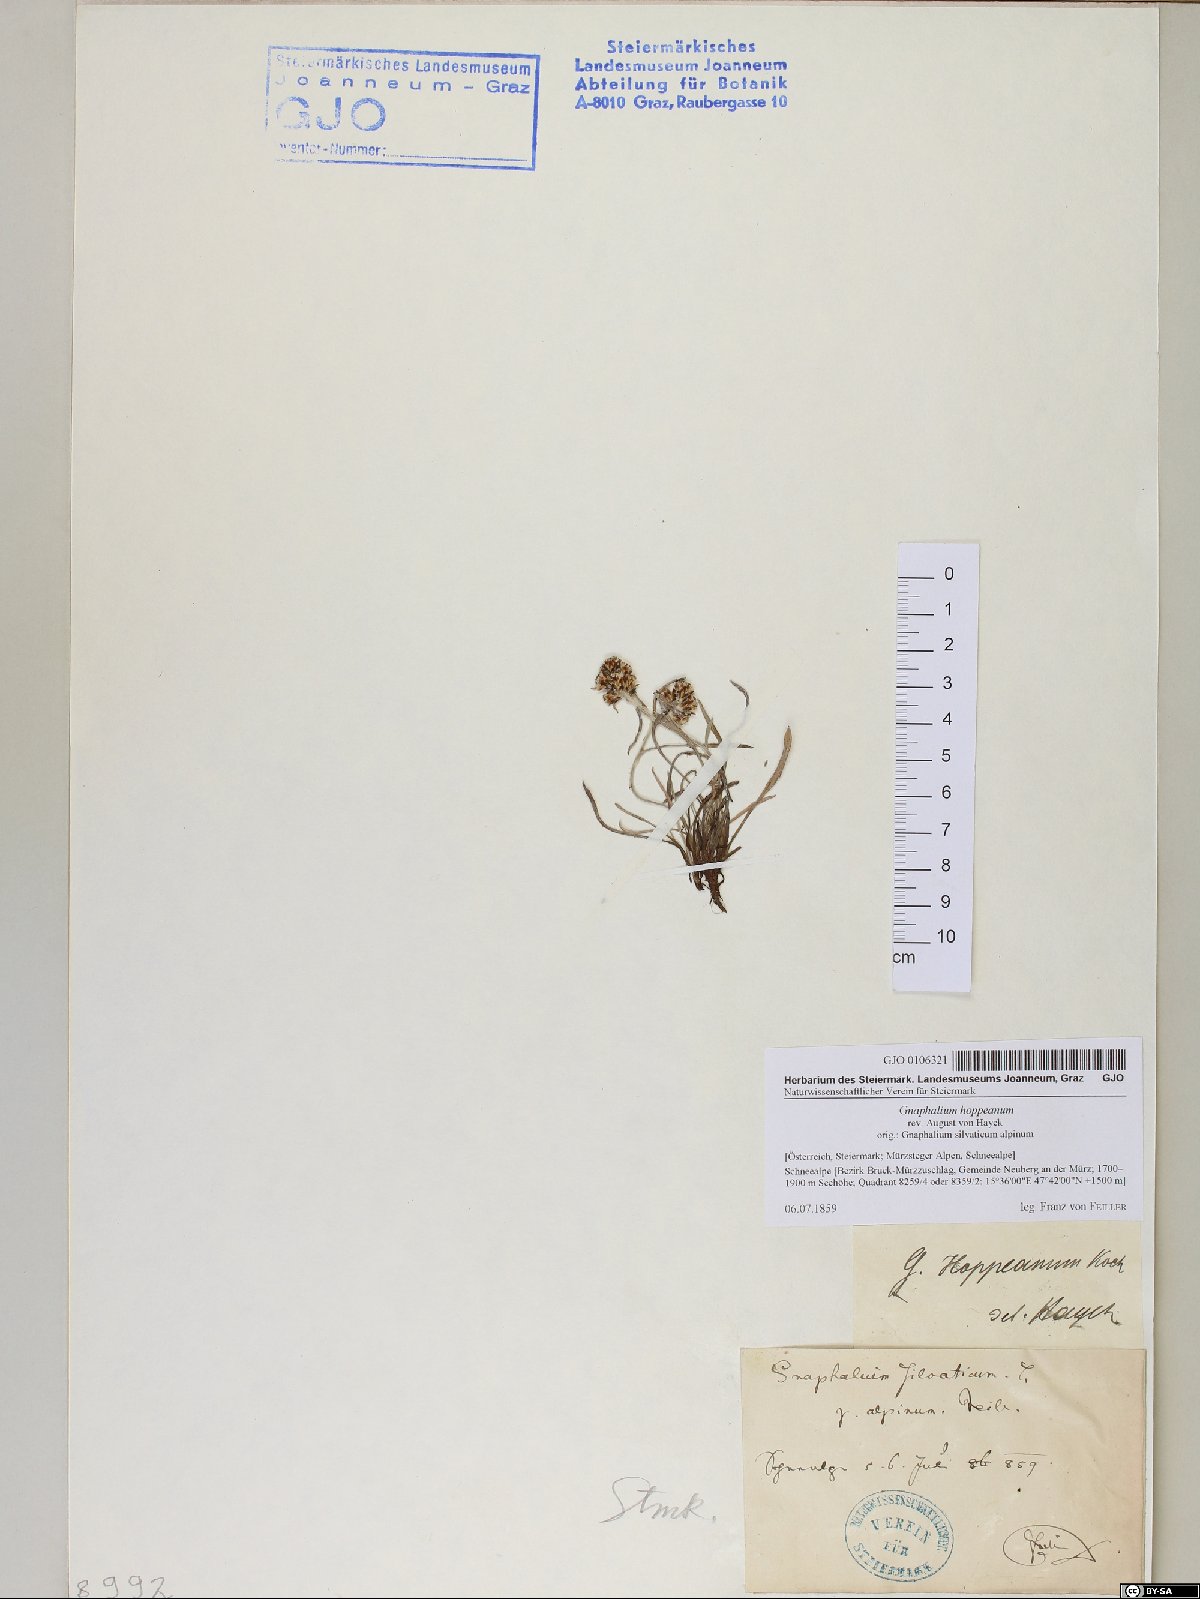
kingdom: Plantae
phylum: Tracheophyta
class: Magnoliopsida
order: Asterales
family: Asteraceae
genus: Omalotheca
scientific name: Omalotheca hoppeana
